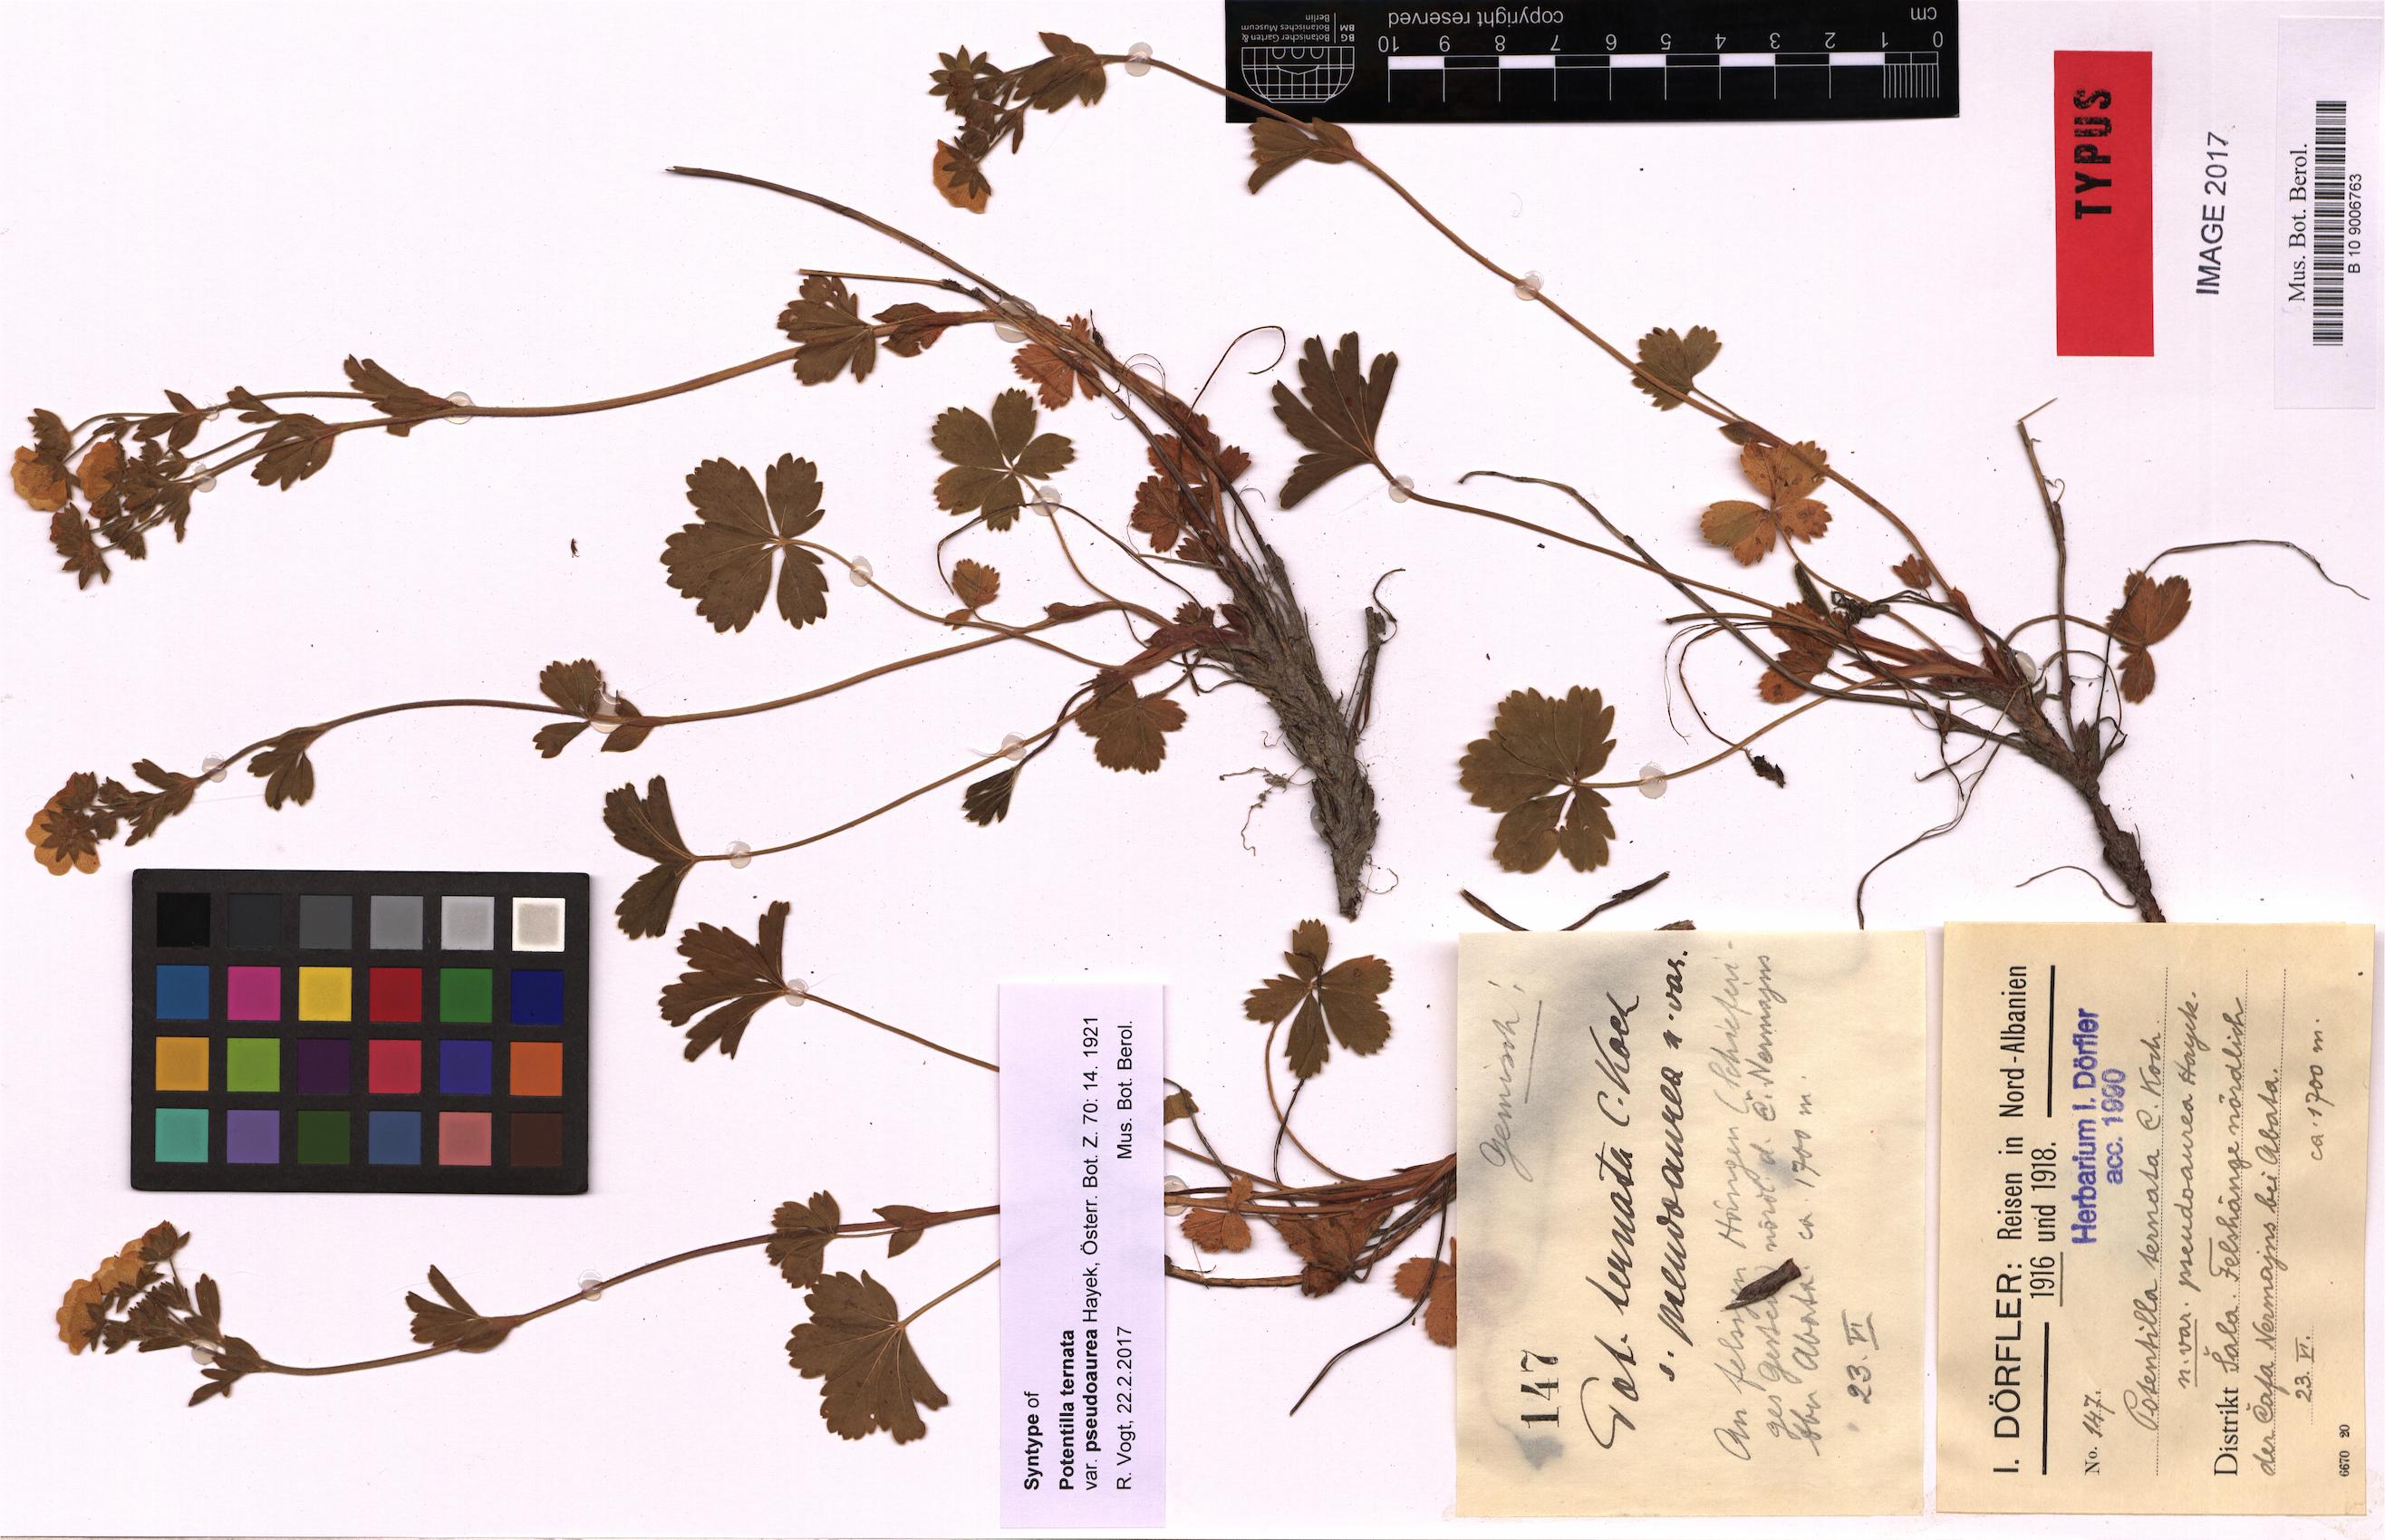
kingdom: Plantae
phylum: Tracheophyta
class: Magnoliopsida
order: Rosales
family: Rosaceae
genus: Potentilla
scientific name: Potentilla aurea
